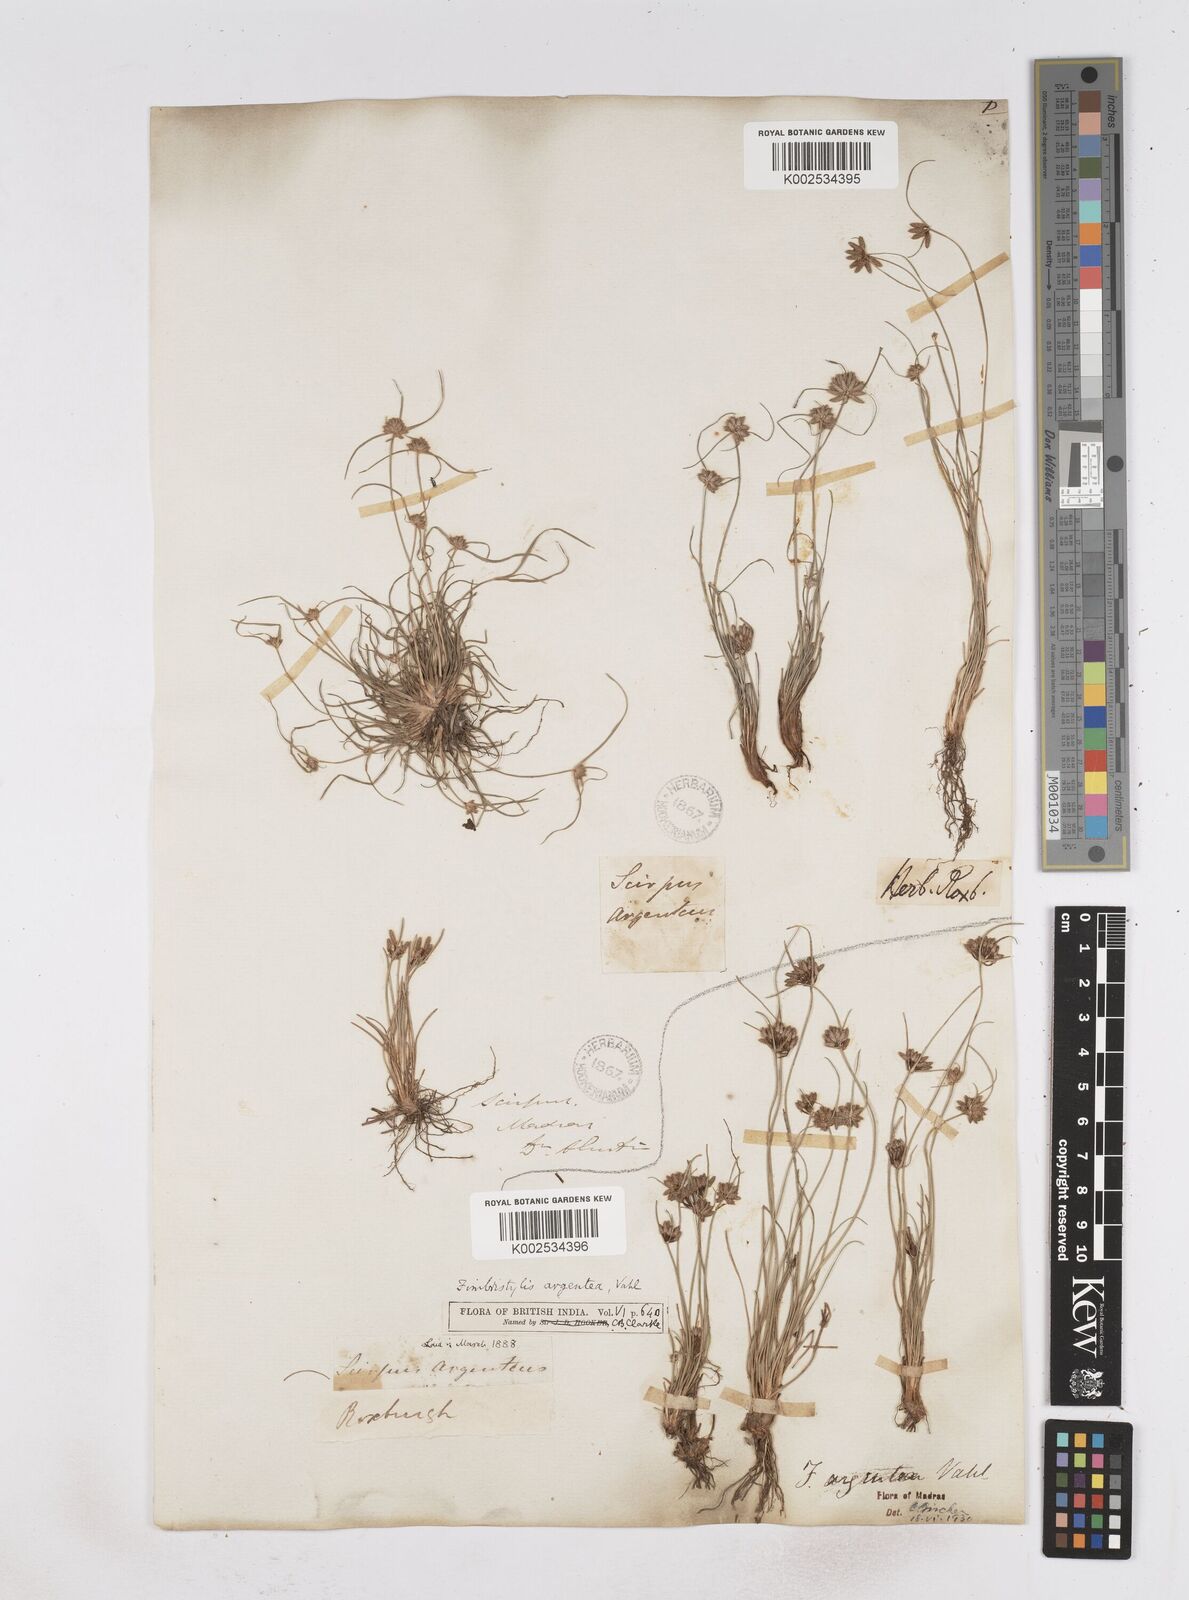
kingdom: Plantae
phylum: Tracheophyta
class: Liliopsida
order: Poales
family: Cyperaceae
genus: Fimbristylis
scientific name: Fimbristylis argentea
